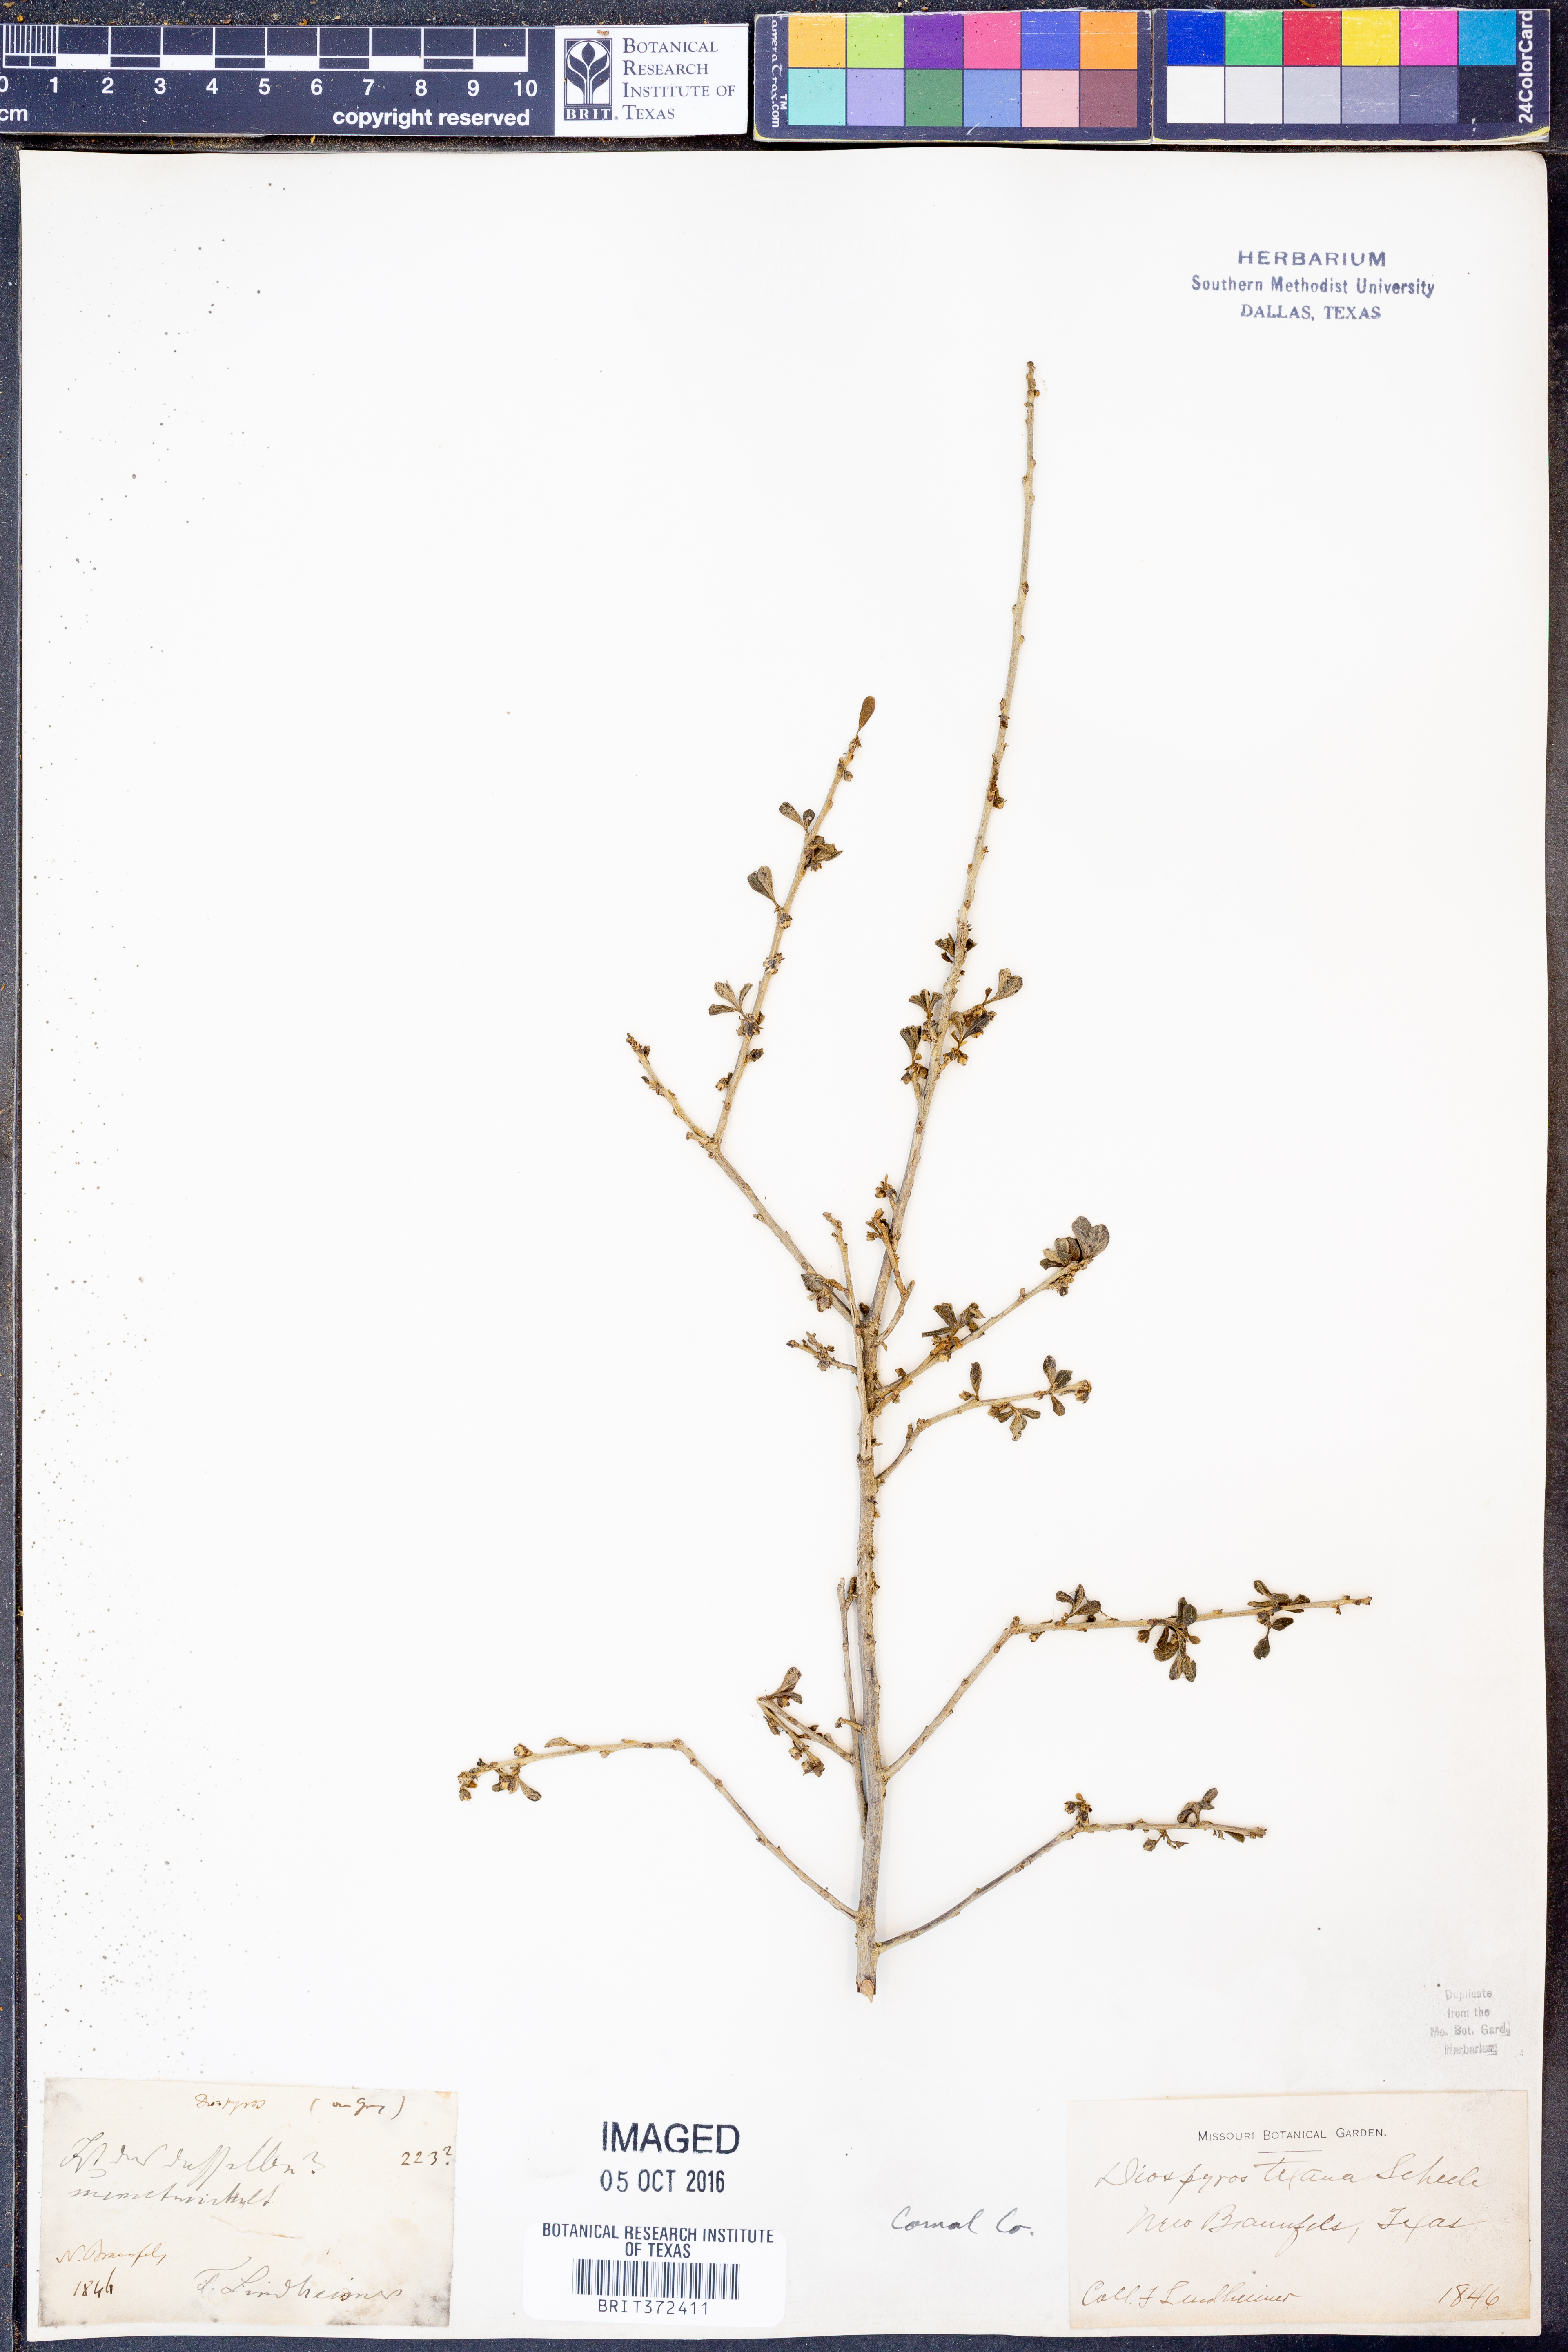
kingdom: Plantae
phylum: Tracheophyta
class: Magnoliopsida
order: Ericales
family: Ebenaceae
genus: Diospyros
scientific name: Diospyros texana
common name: Texas persimmon
